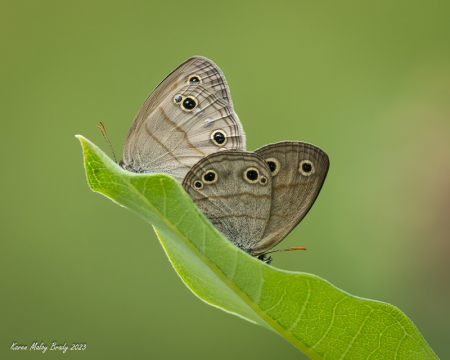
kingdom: Animalia
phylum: Arthropoda
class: Insecta
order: Lepidoptera
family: Nymphalidae
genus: Euptychia
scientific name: Euptychia cymela
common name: Little Wood Satyr
